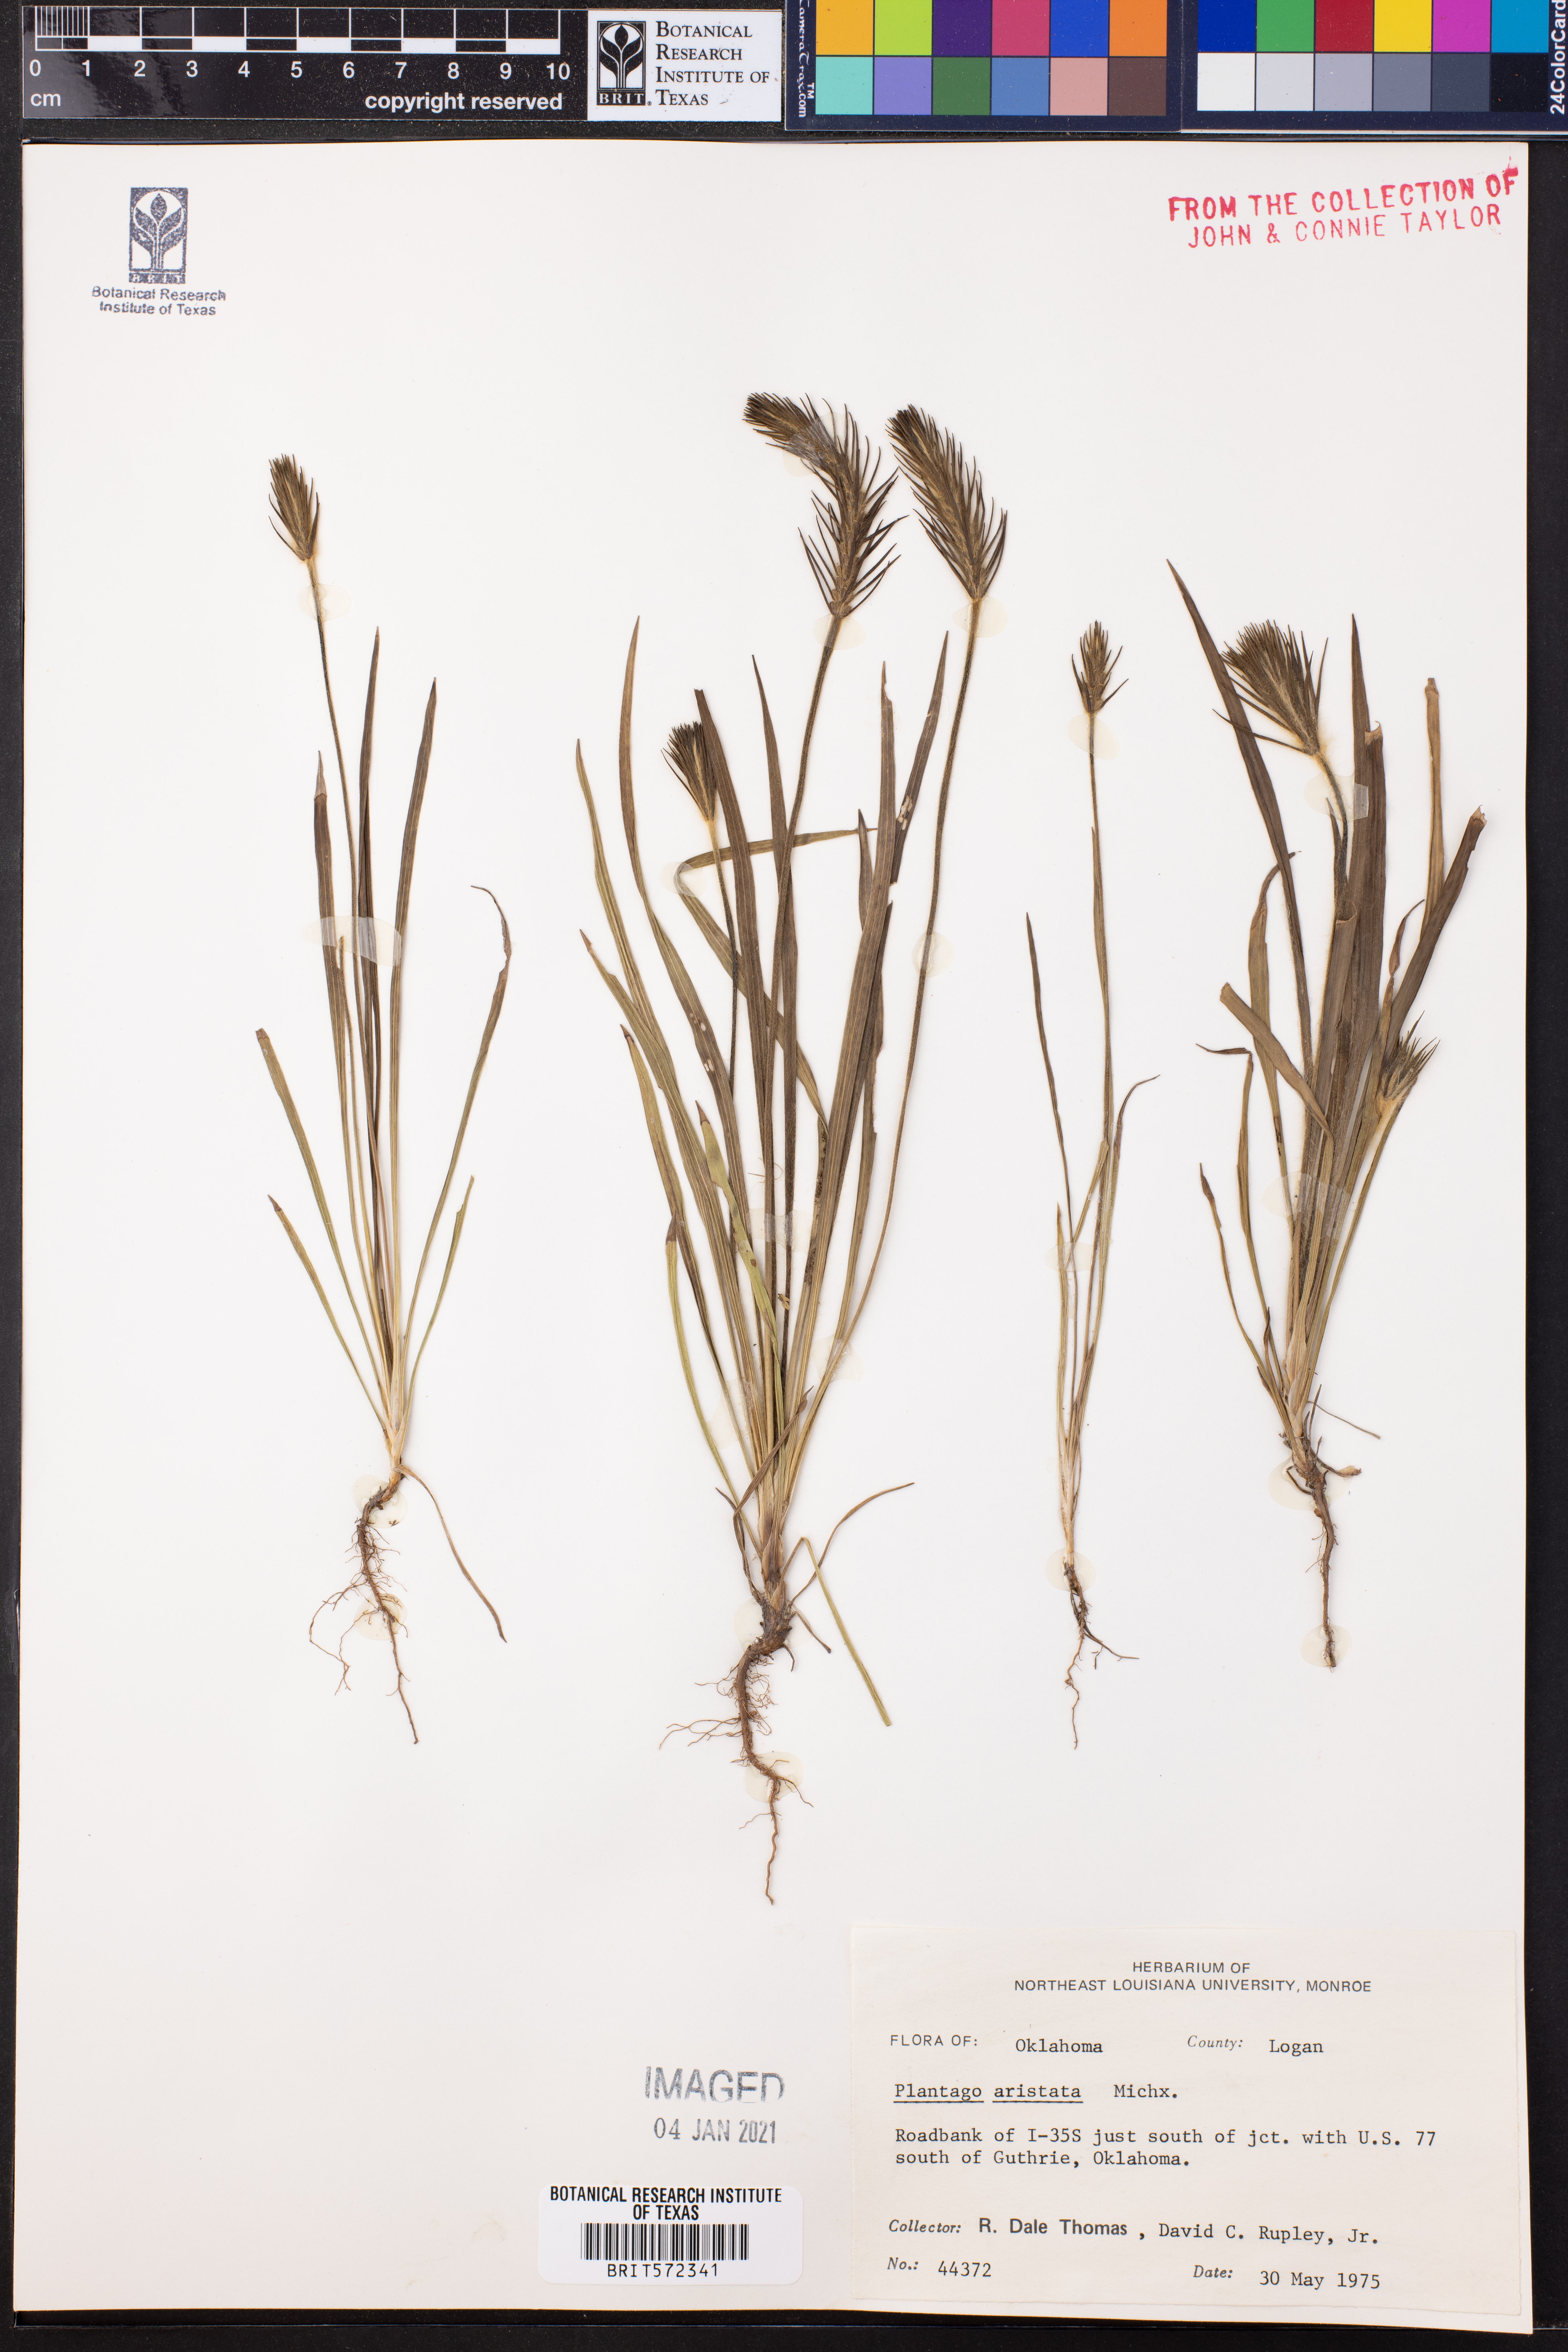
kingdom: Plantae
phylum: Tracheophyta
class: Magnoliopsida
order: Lamiales
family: Plantaginaceae
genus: Plantago
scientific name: Plantago aristata
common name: Bracted plantain
